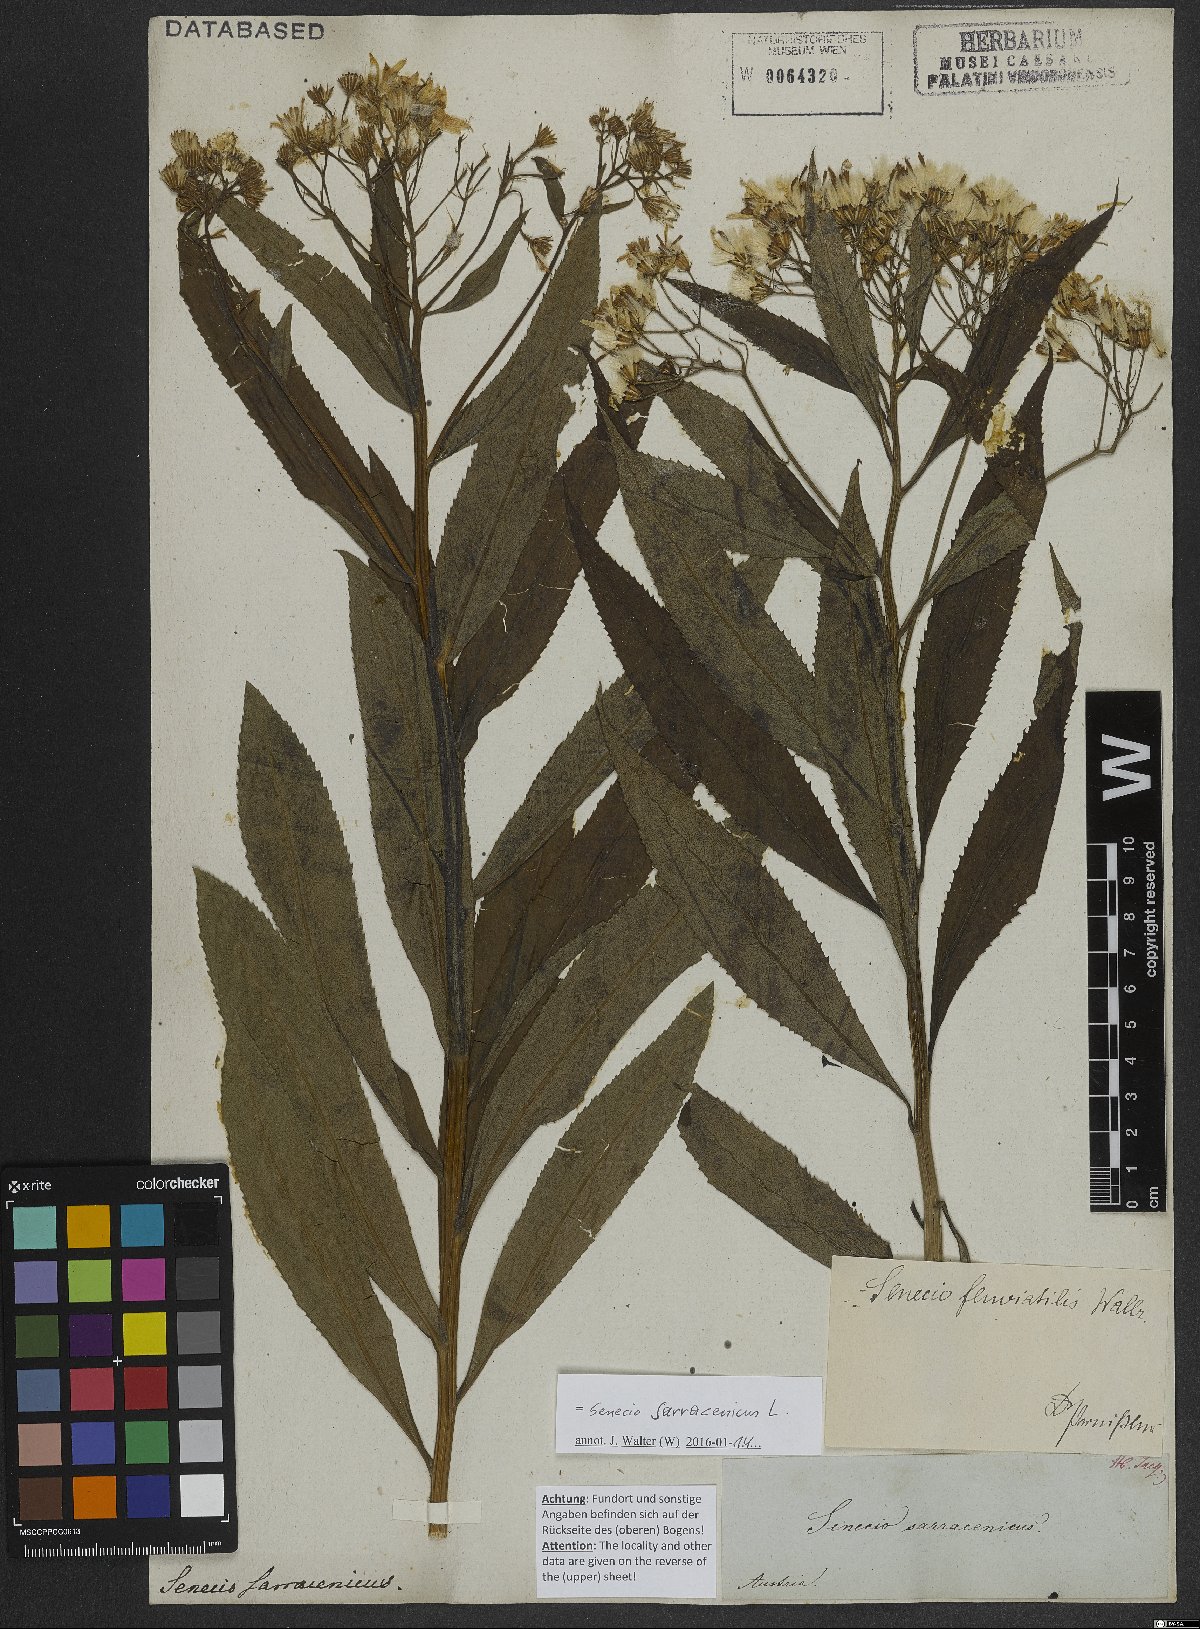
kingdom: Plantae
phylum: Tracheophyta
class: Magnoliopsida
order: Asterales
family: Asteraceae
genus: Senecio
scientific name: Senecio sarracenicus
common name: Broad-leaved ragwort
